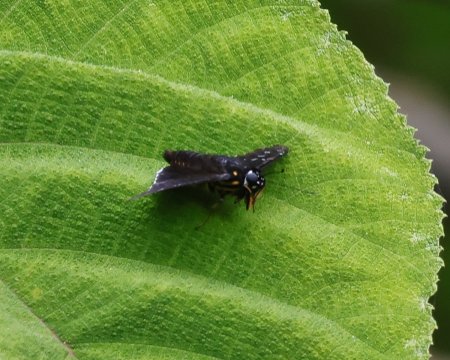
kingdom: Animalia
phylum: Arthropoda
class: Insecta
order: Lepidoptera
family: Hesperiidae
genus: Melanopyge
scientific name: Melanopyge
